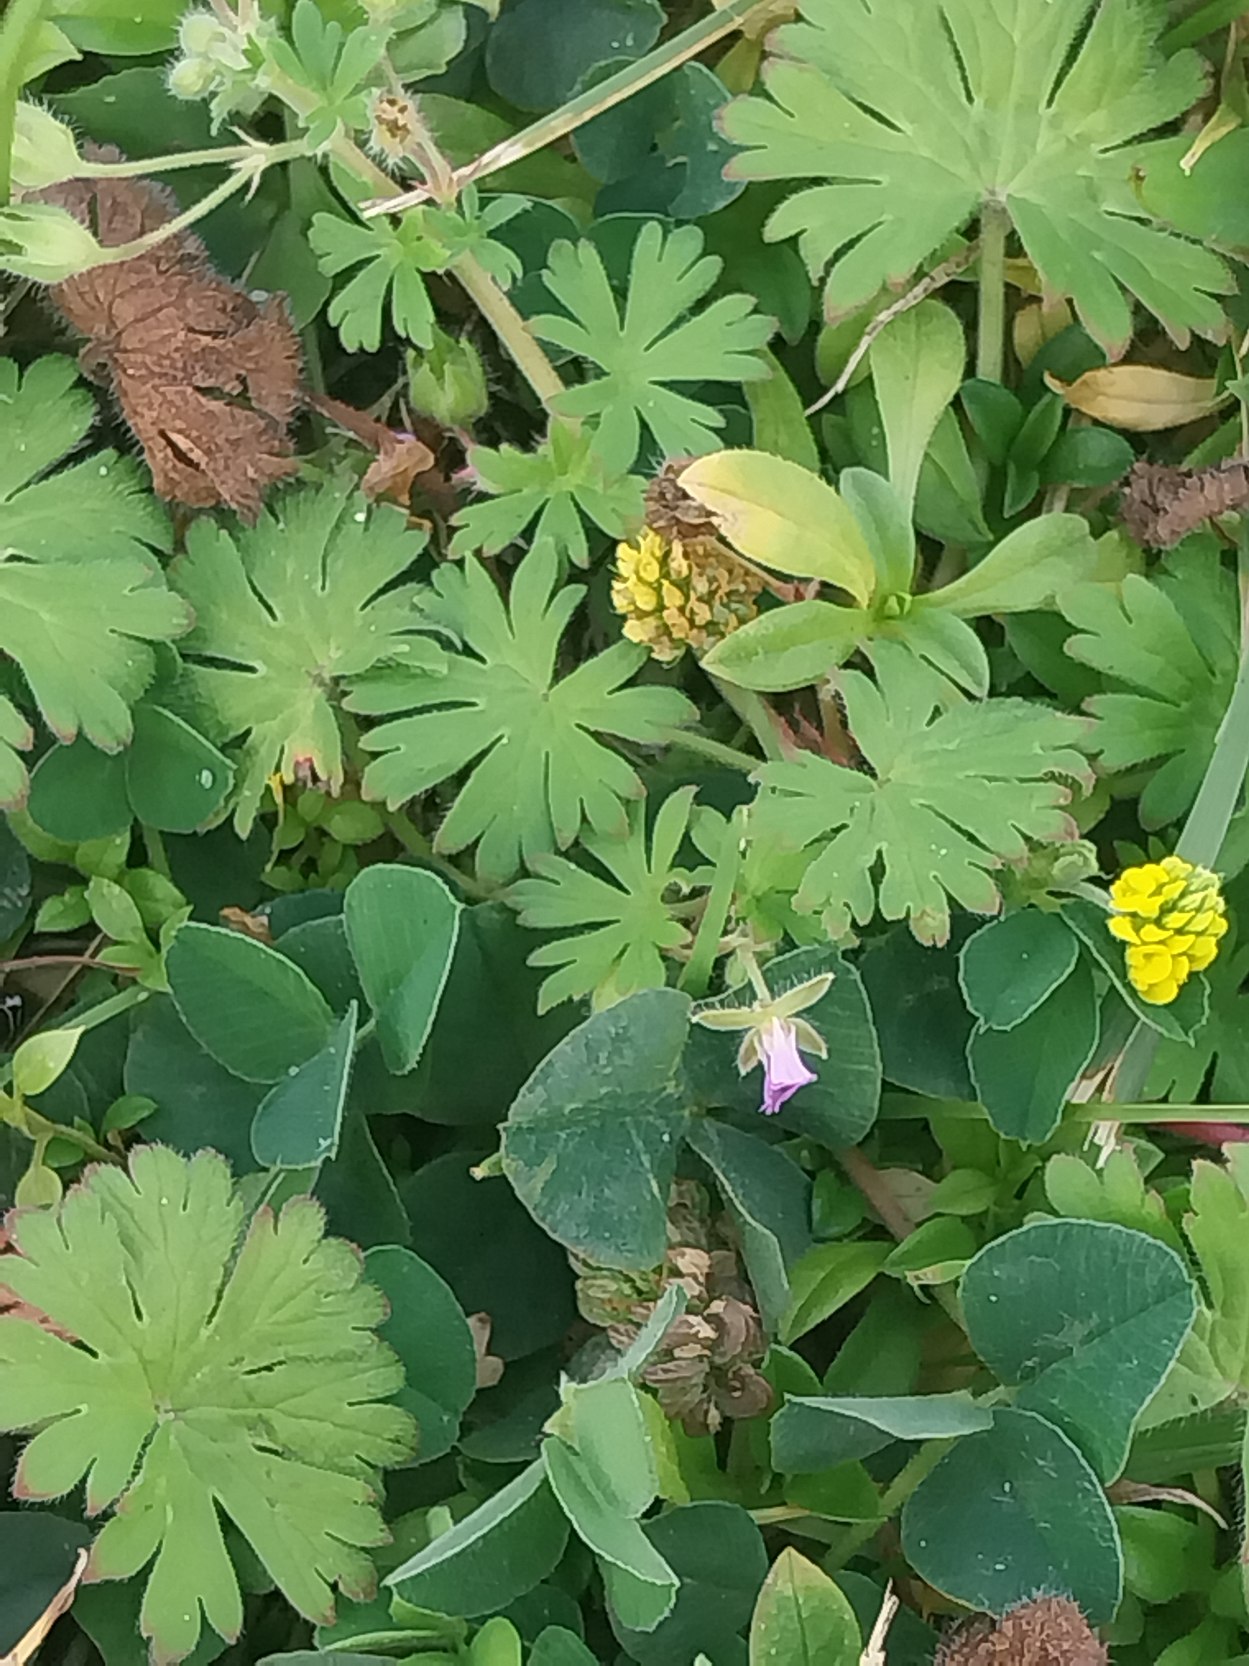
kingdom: Plantae
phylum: Tracheophyta
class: Magnoliopsida
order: Geraniales
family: Geraniaceae
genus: Geranium
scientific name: Geranium pusillum
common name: Liden storkenæb
